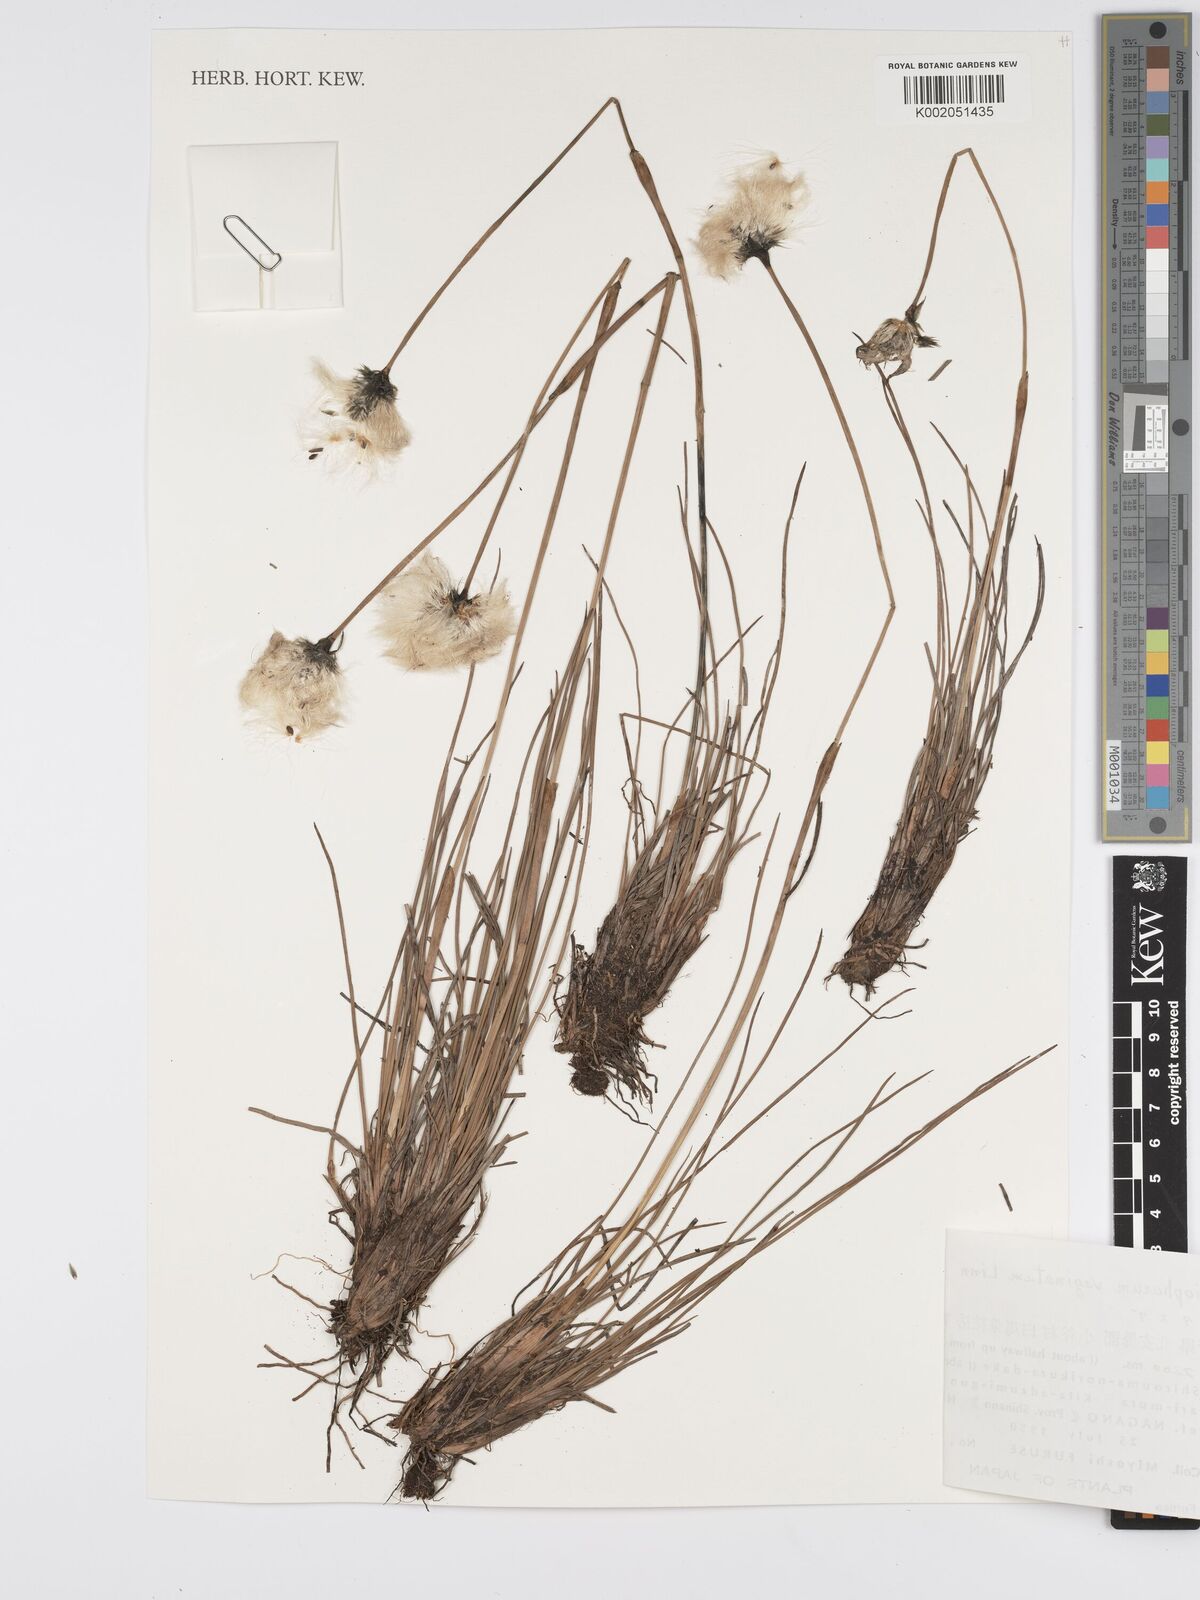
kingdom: Plantae
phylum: Tracheophyta
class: Liliopsida
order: Poales
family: Cyperaceae
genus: Eriophorum
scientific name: Eriophorum vaginatum
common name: Hare's-tail cottongrass
